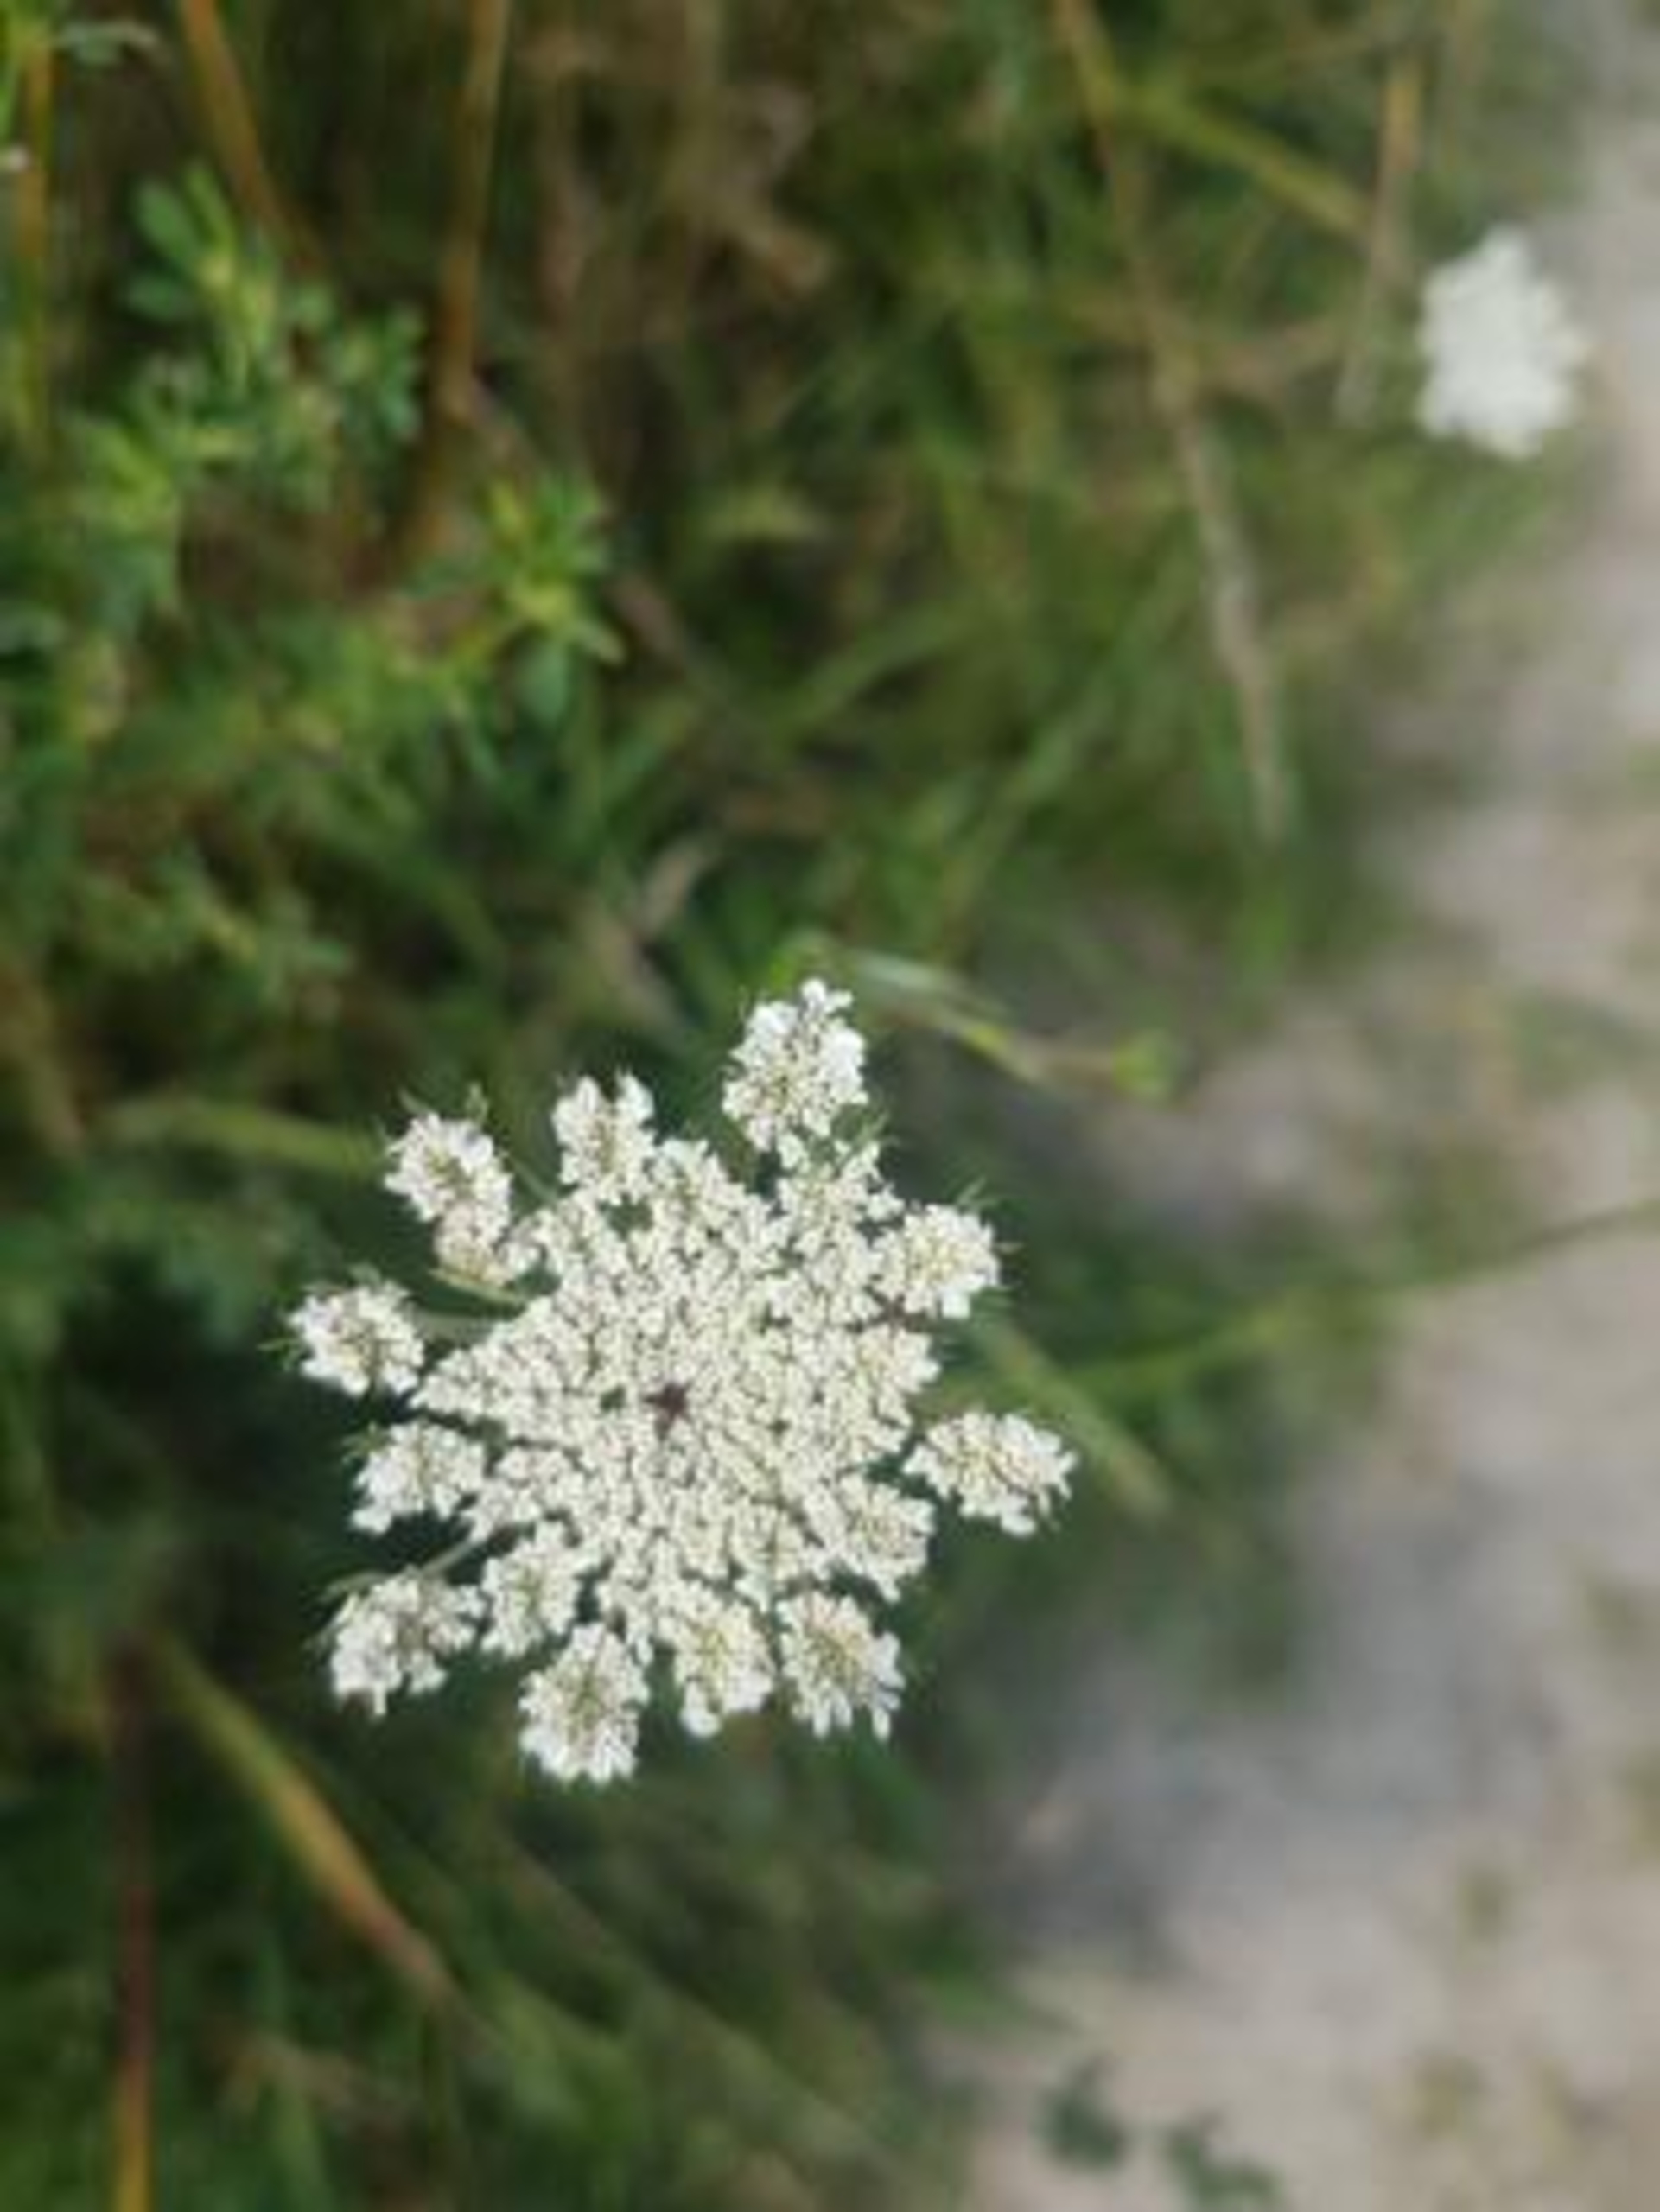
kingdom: Plantae
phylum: Tracheophyta
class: Magnoliopsida
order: Apiales
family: Apiaceae
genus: Daucus
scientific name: Daucus carota
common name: Gulerod
